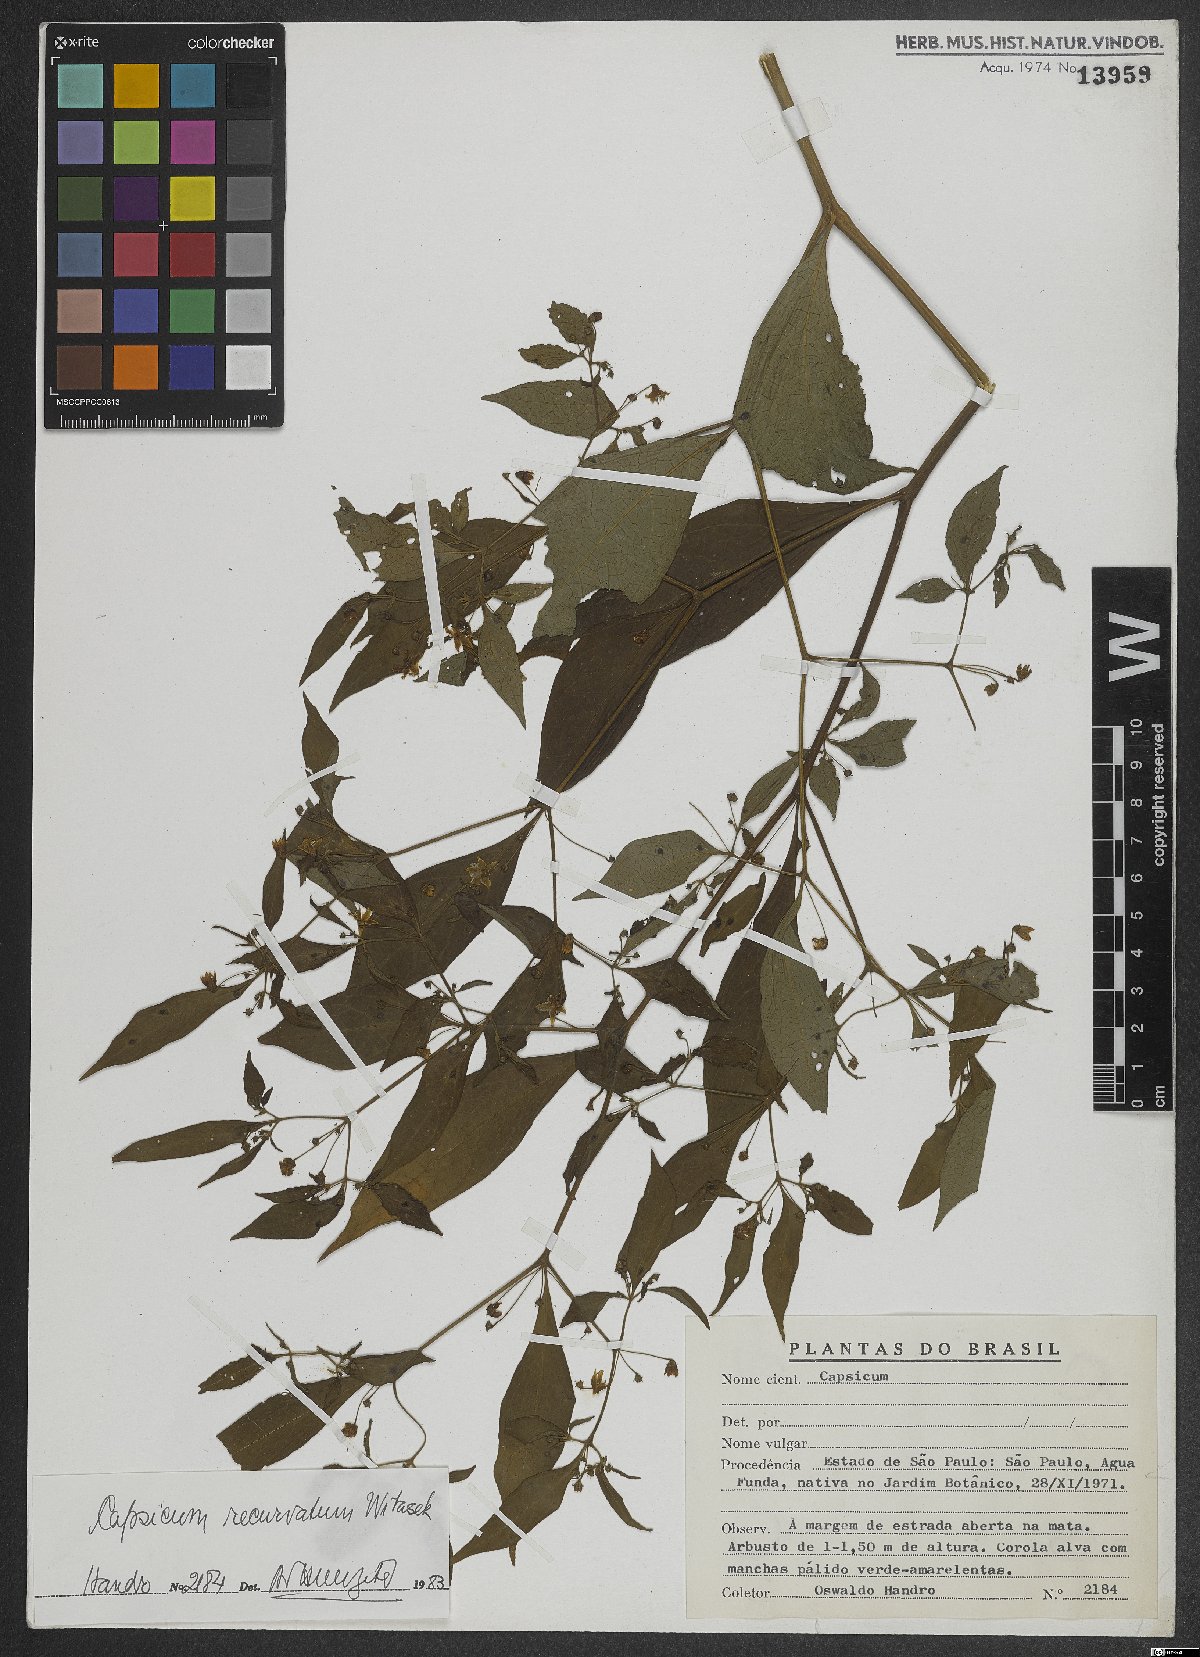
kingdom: Plantae
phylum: Tracheophyta
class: Magnoliopsida
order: Solanales
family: Solanaceae
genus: Capsicum
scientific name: Capsicum recurvatum
